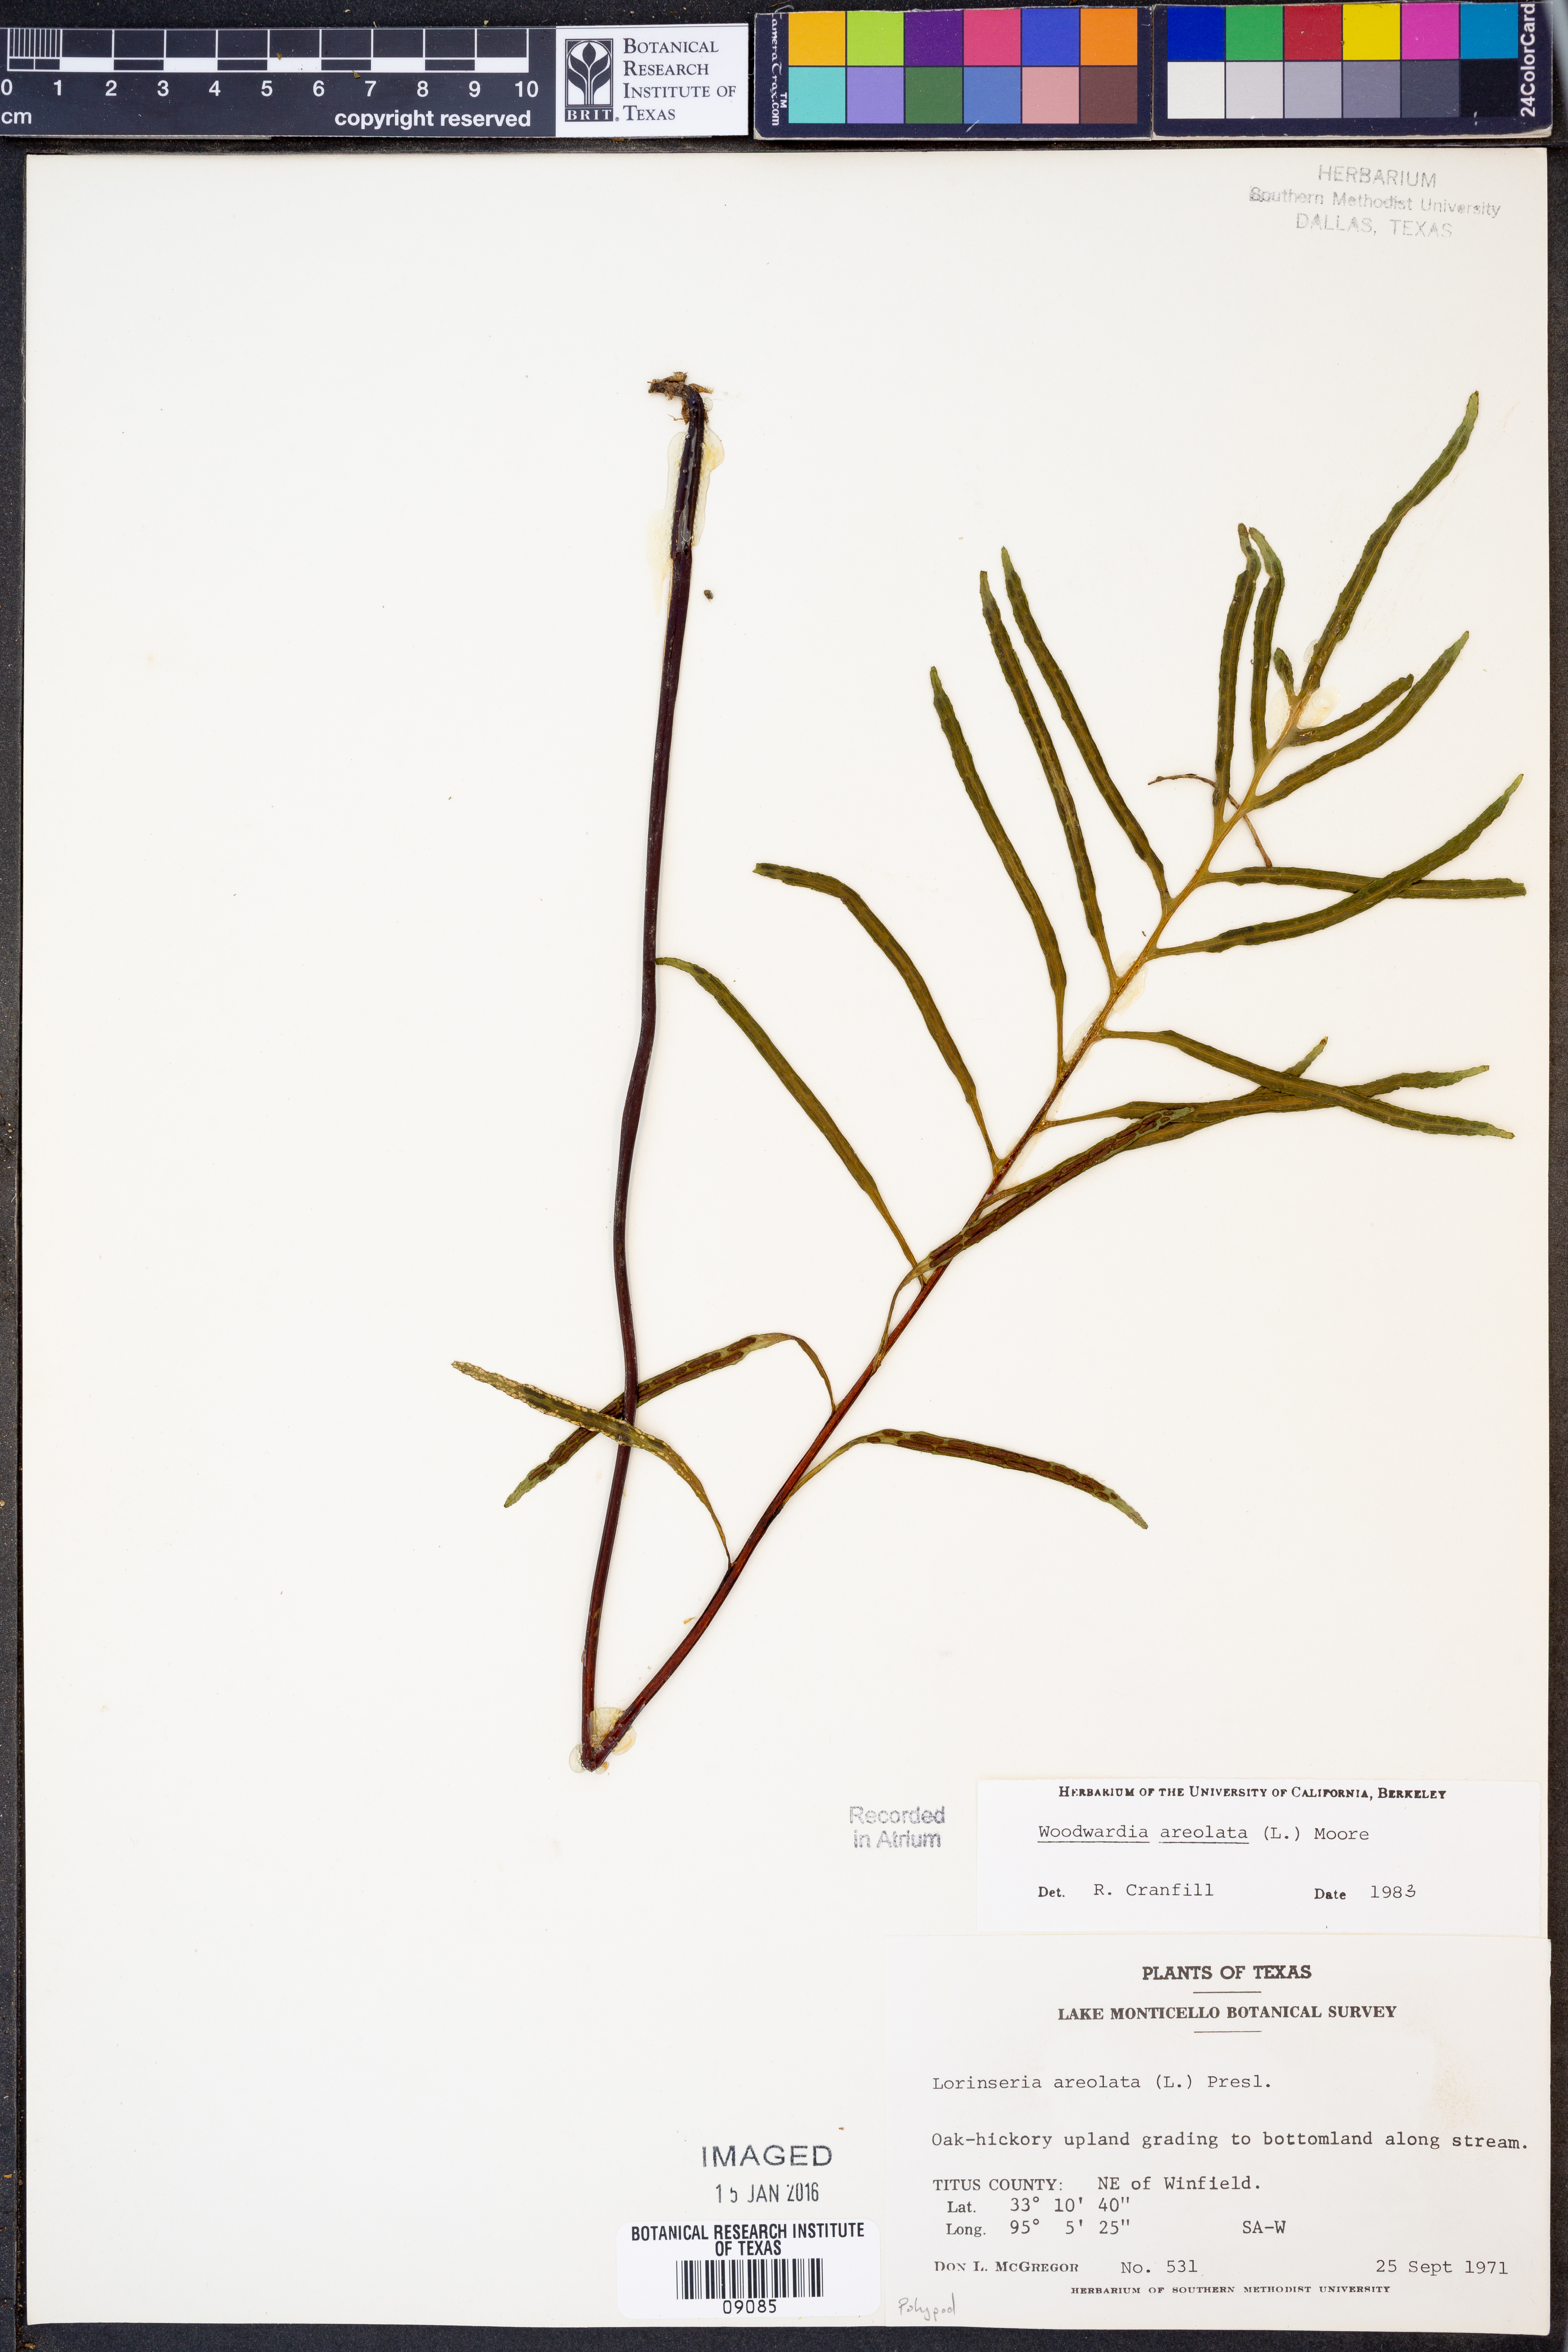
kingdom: Plantae
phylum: Tracheophyta
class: Polypodiopsida
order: Polypodiales
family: Blechnaceae
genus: Lorinseria
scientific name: Lorinseria areolata
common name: Dwarf chain fern
